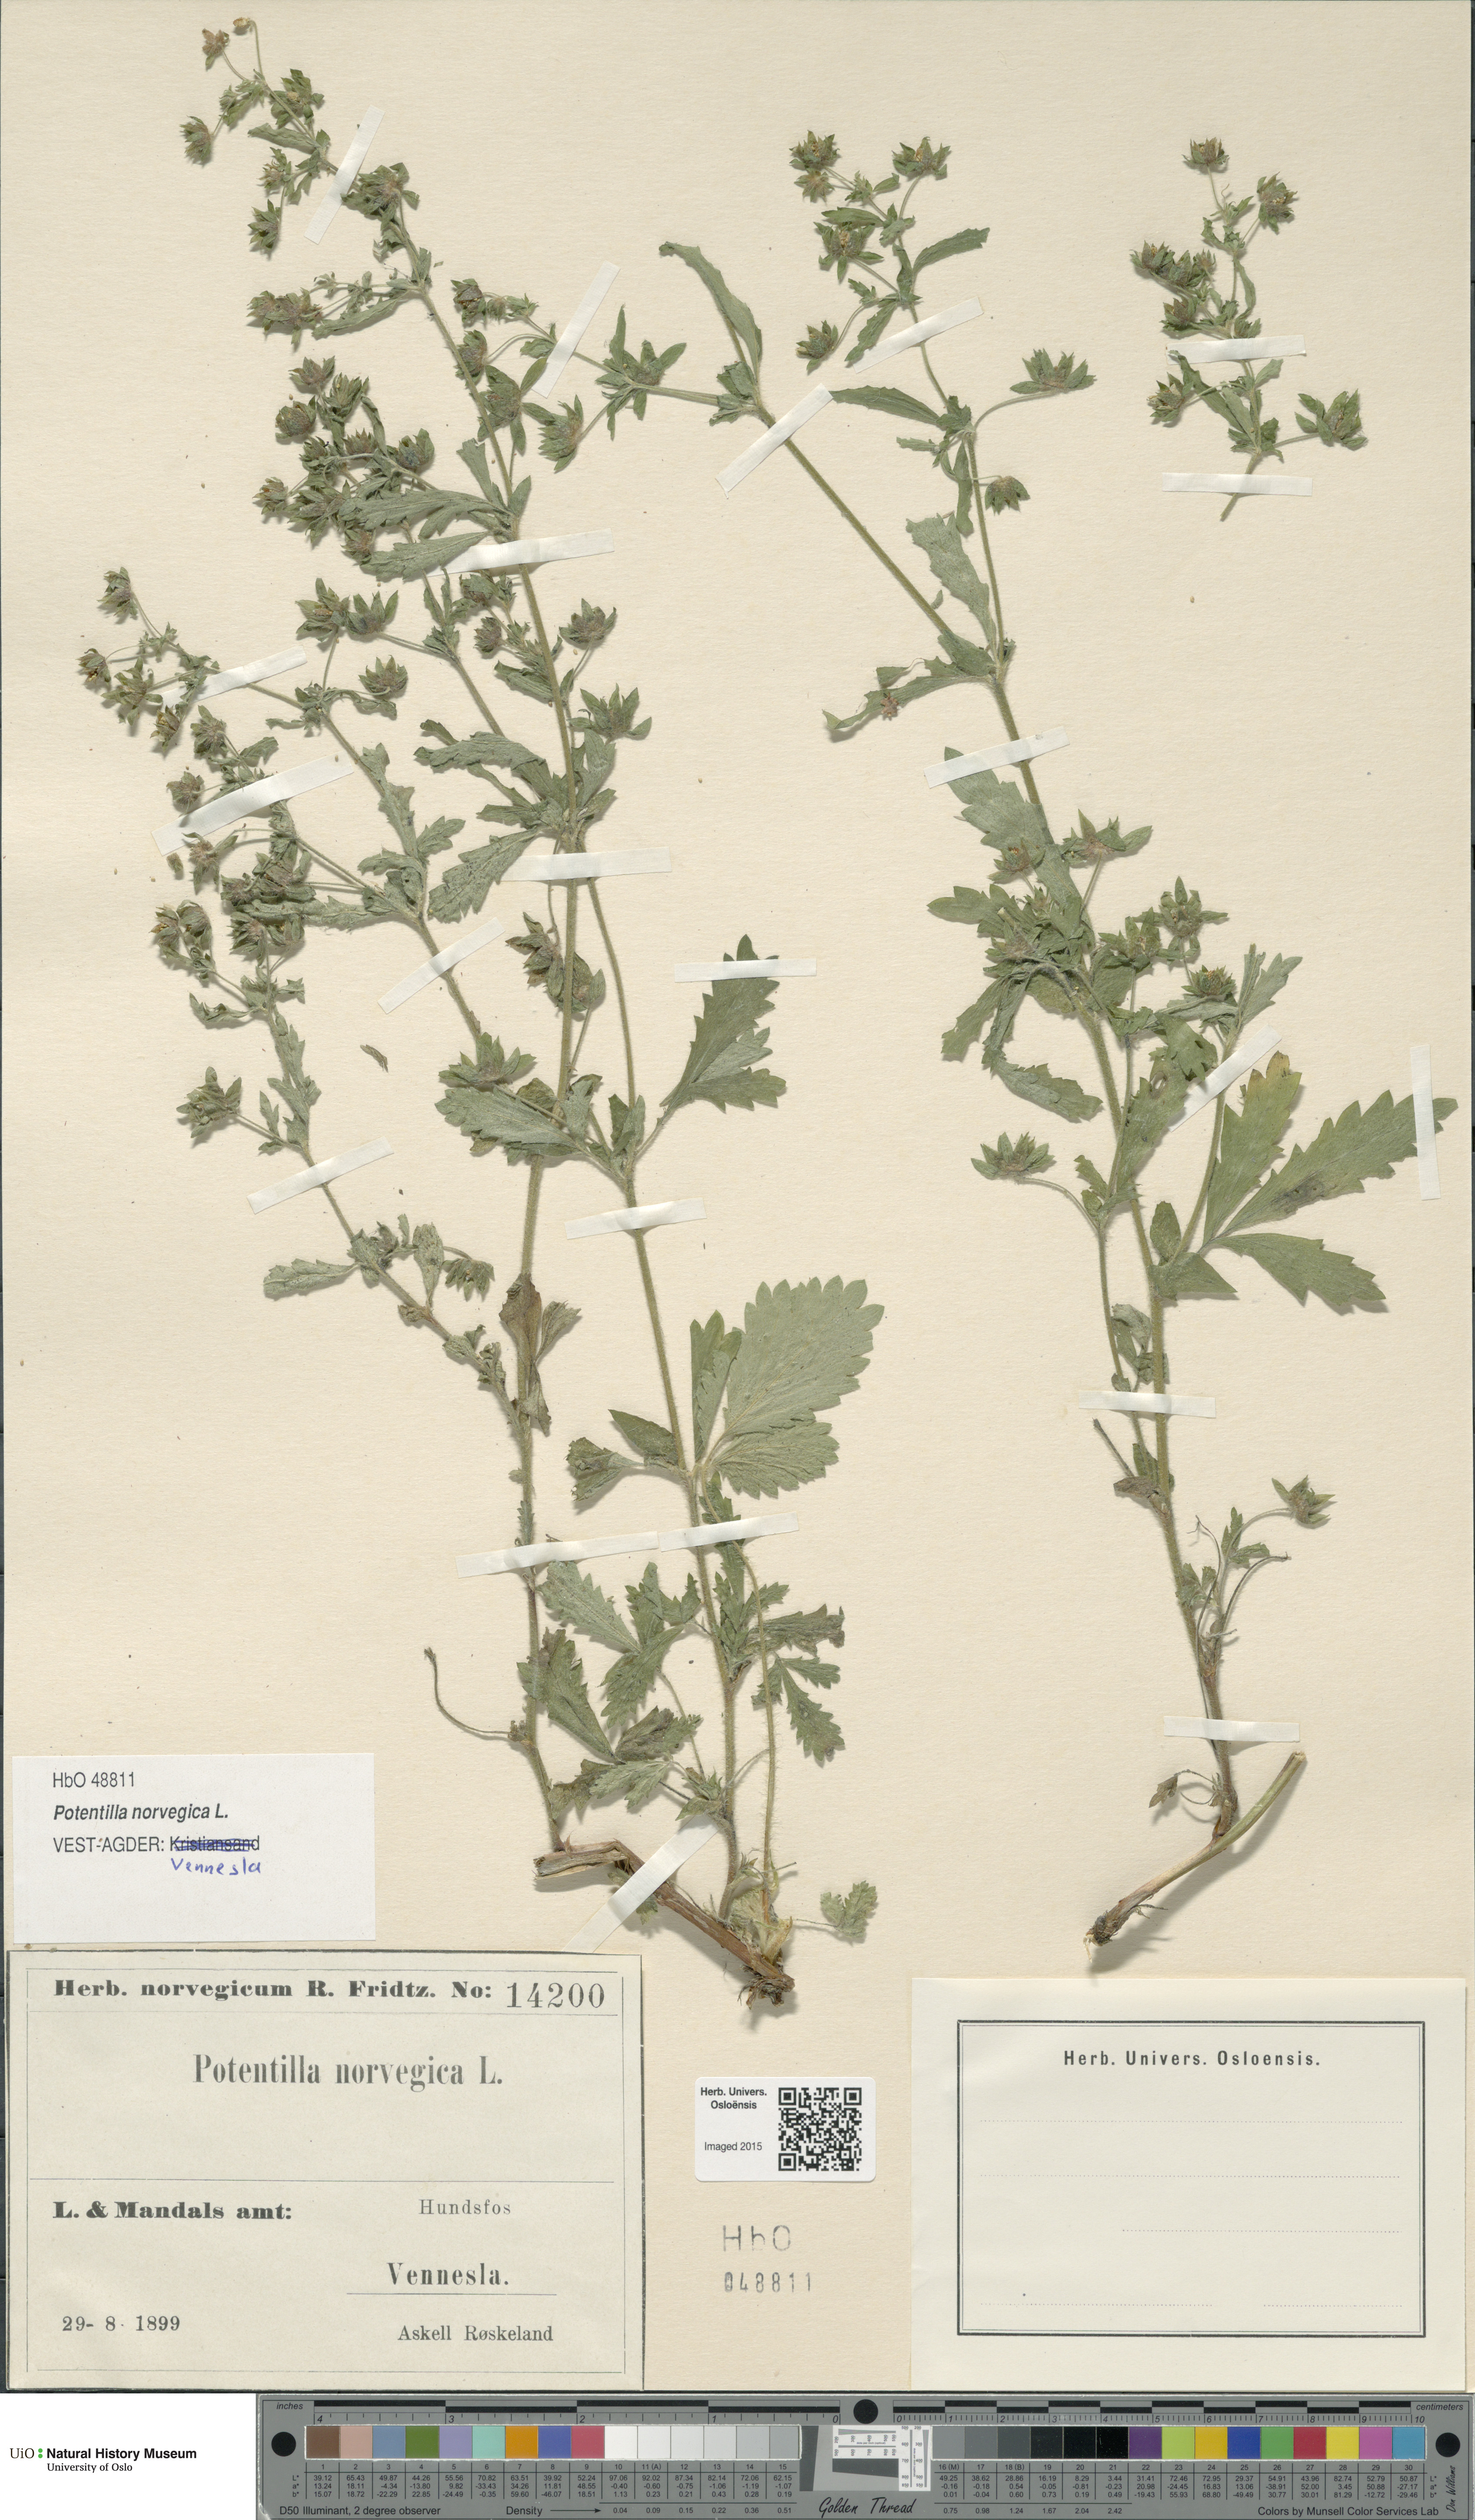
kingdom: Plantae
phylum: Tracheophyta
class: Magnoliopsida
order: Rosales
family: Rosaceae
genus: Potentilla
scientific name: Potentilla norvegica
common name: Ternate-leaved cinquefoil
